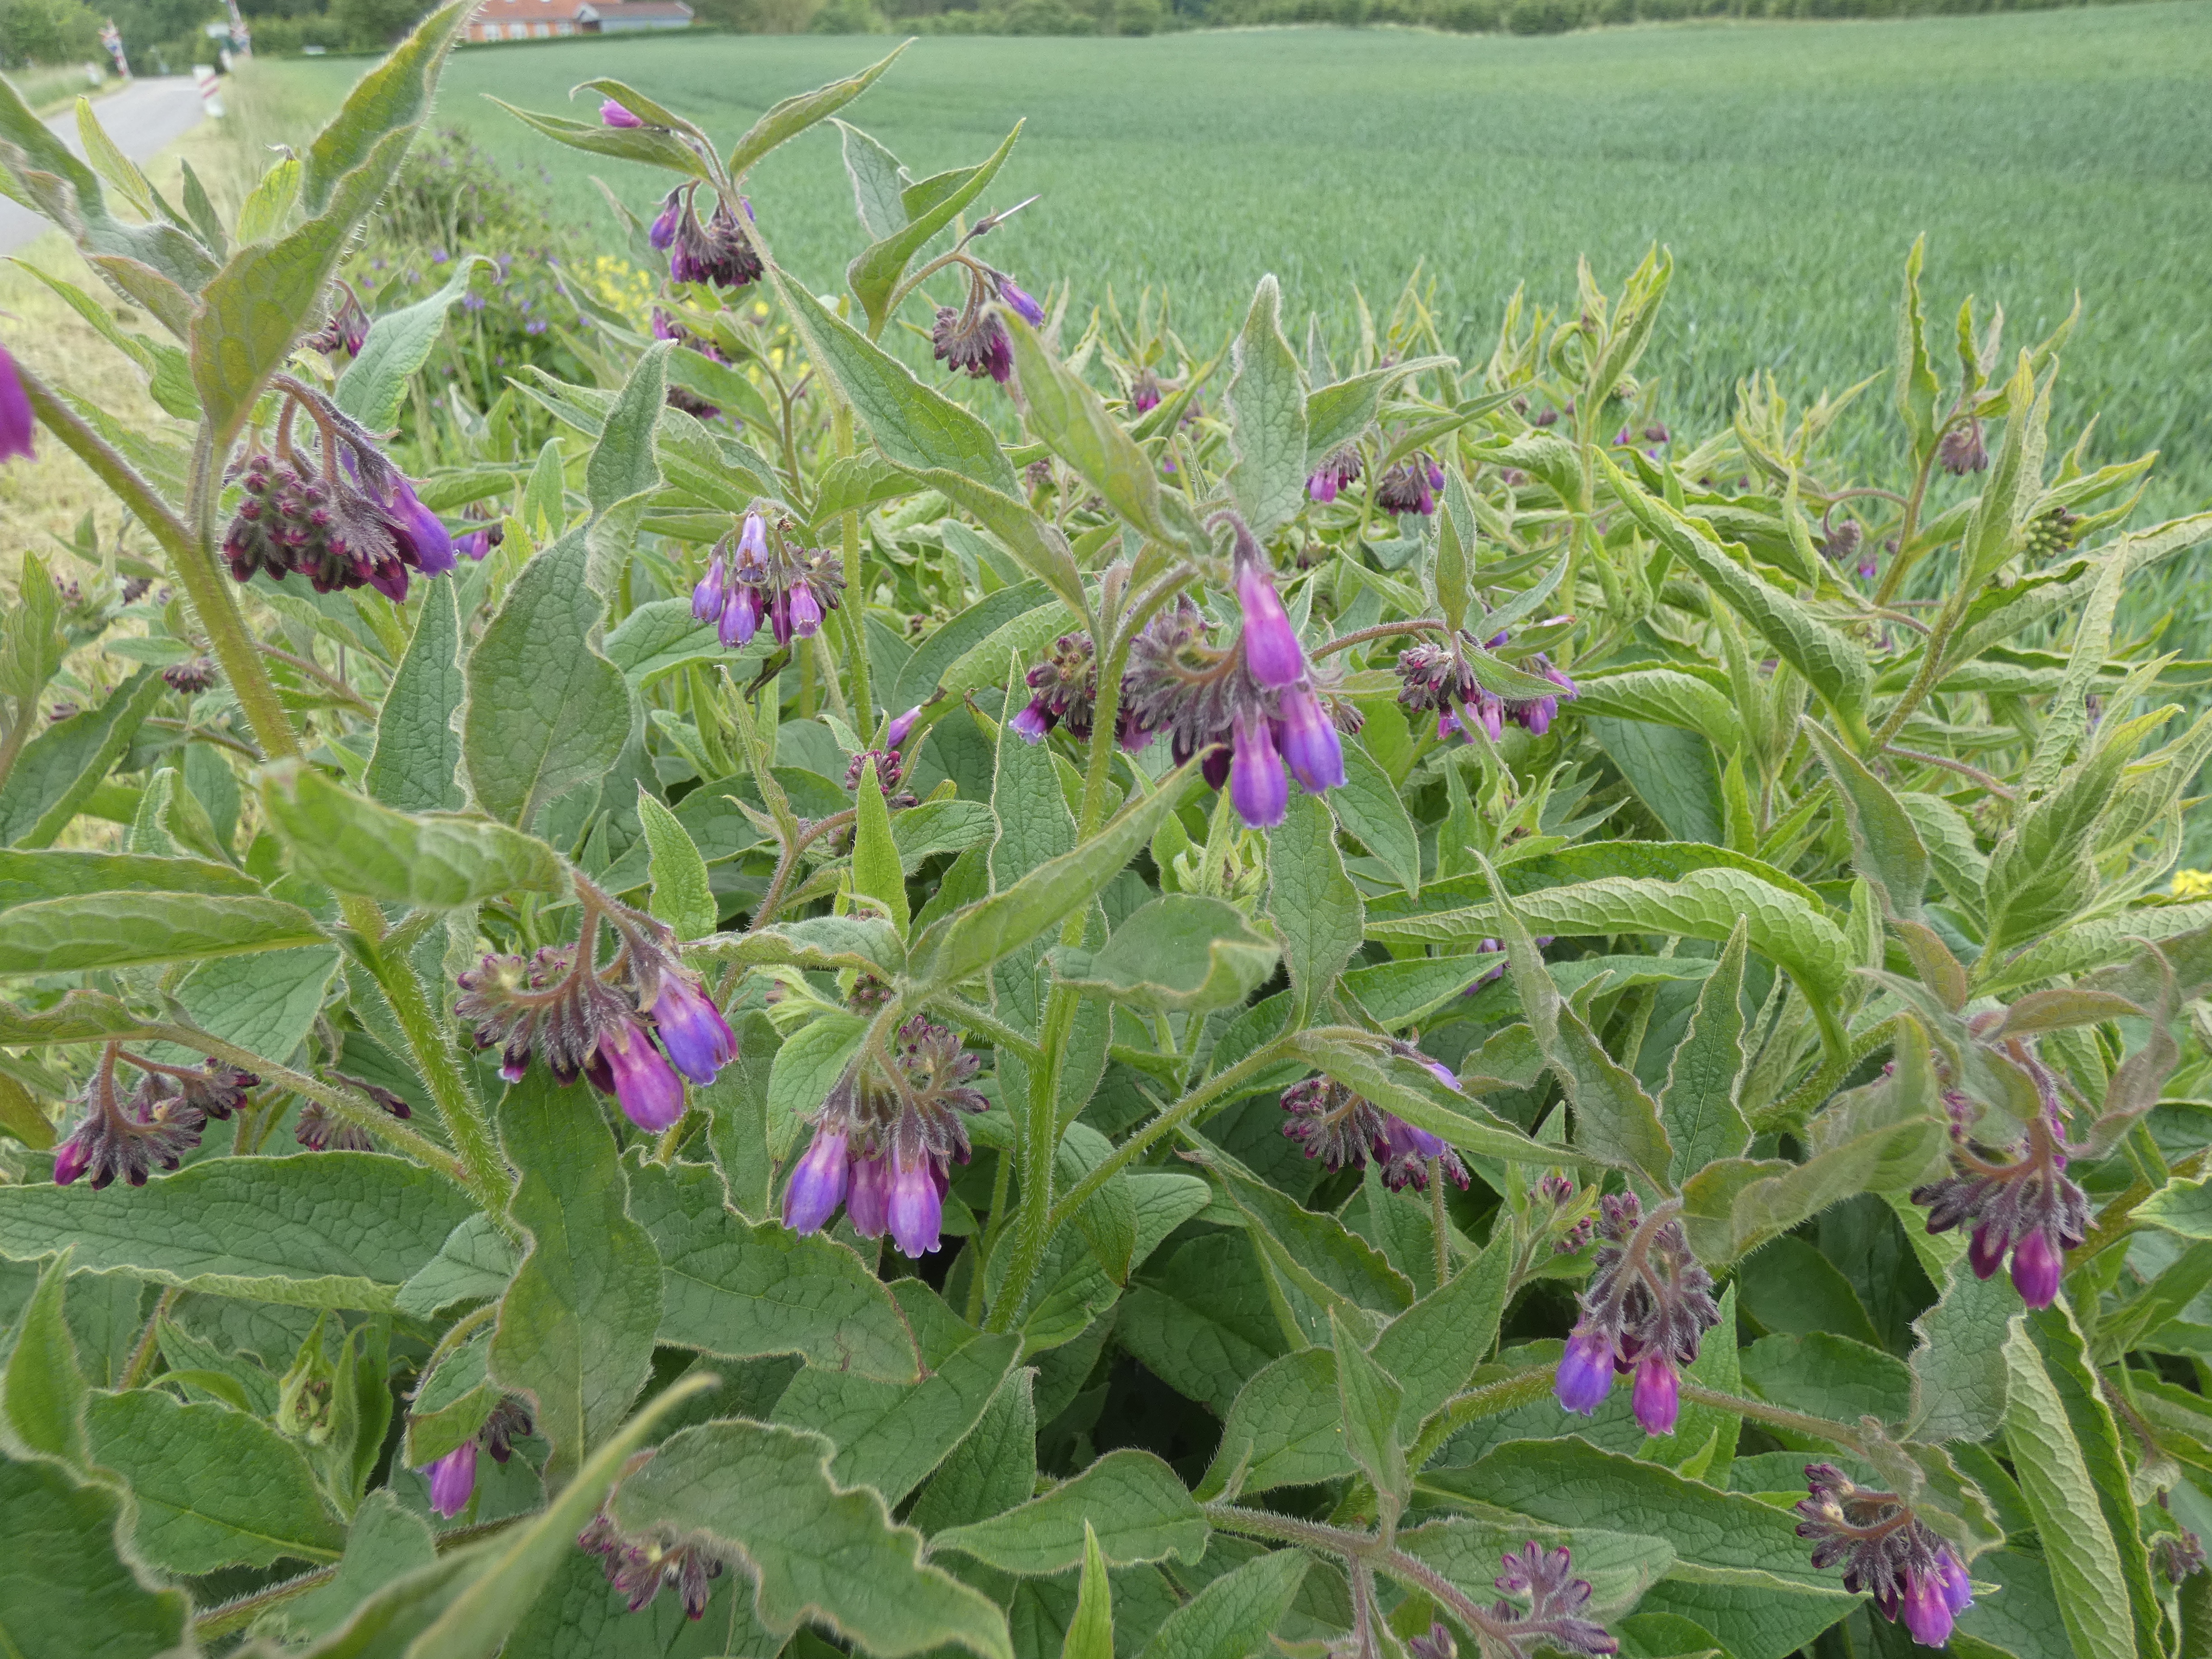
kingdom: Plantae
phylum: Tracheophyta
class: Magnoliopsida
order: Boraginales
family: Boraginaceae
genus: Symphytum
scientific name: Symphytum uplandicum
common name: Foder-kulsukker
